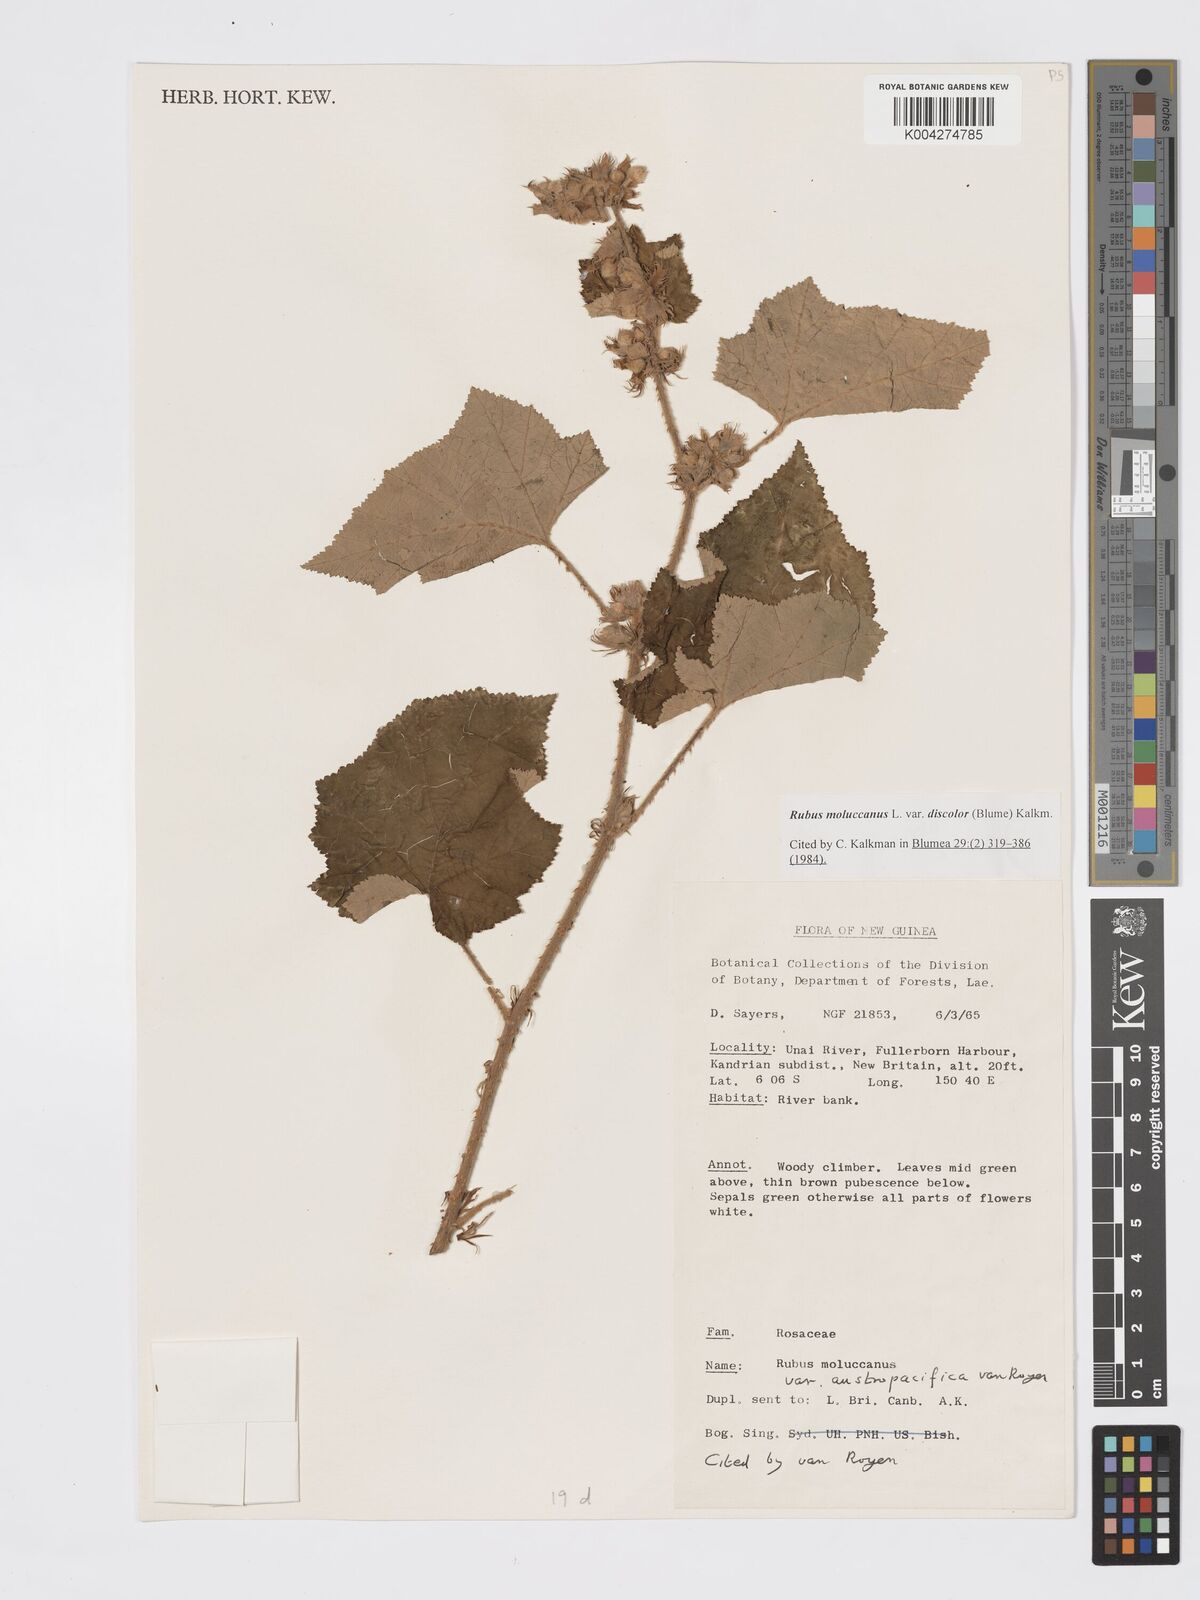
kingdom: Plantae
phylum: Tracheophyta
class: Magnoliopsida
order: Rosales
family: Rosaceae
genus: Rubus
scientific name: Rubus moluccanus
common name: Wild raspberry
